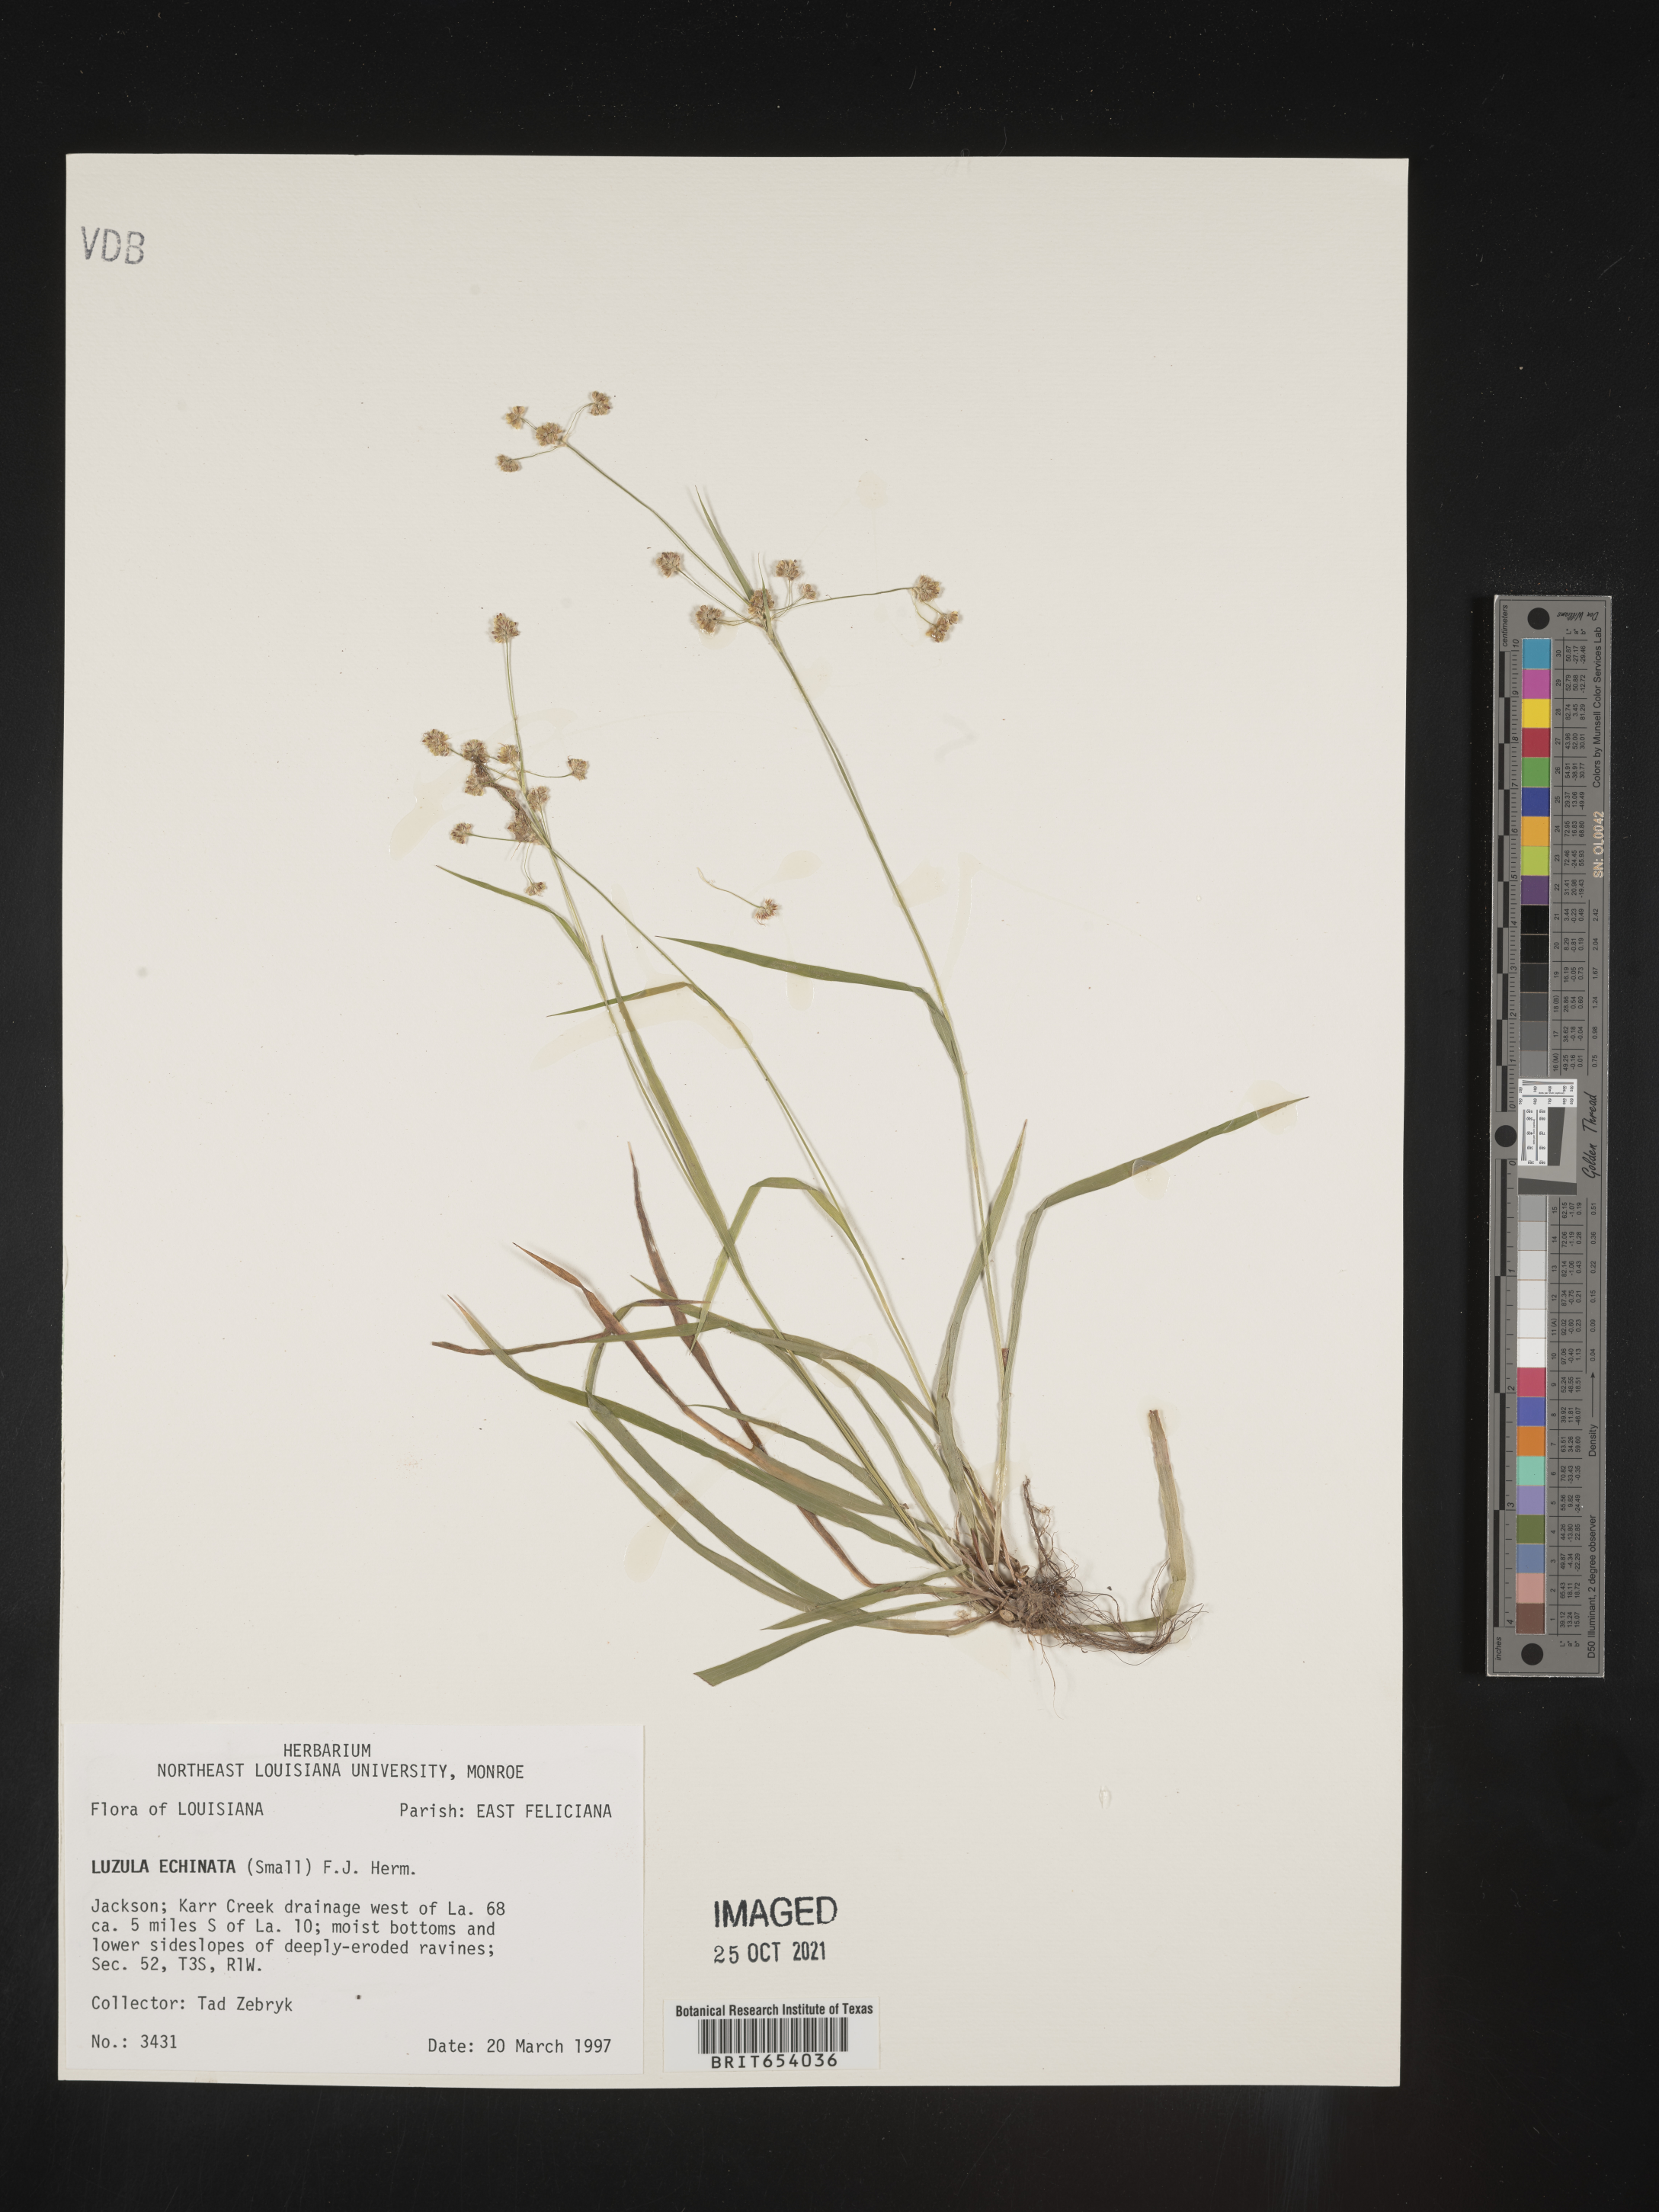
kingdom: Plantae
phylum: Tracheophyta
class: Liliopsida
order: Poales
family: Juncaceae
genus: Luzula
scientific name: Luzula echinata
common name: Hedgehog woodrush
